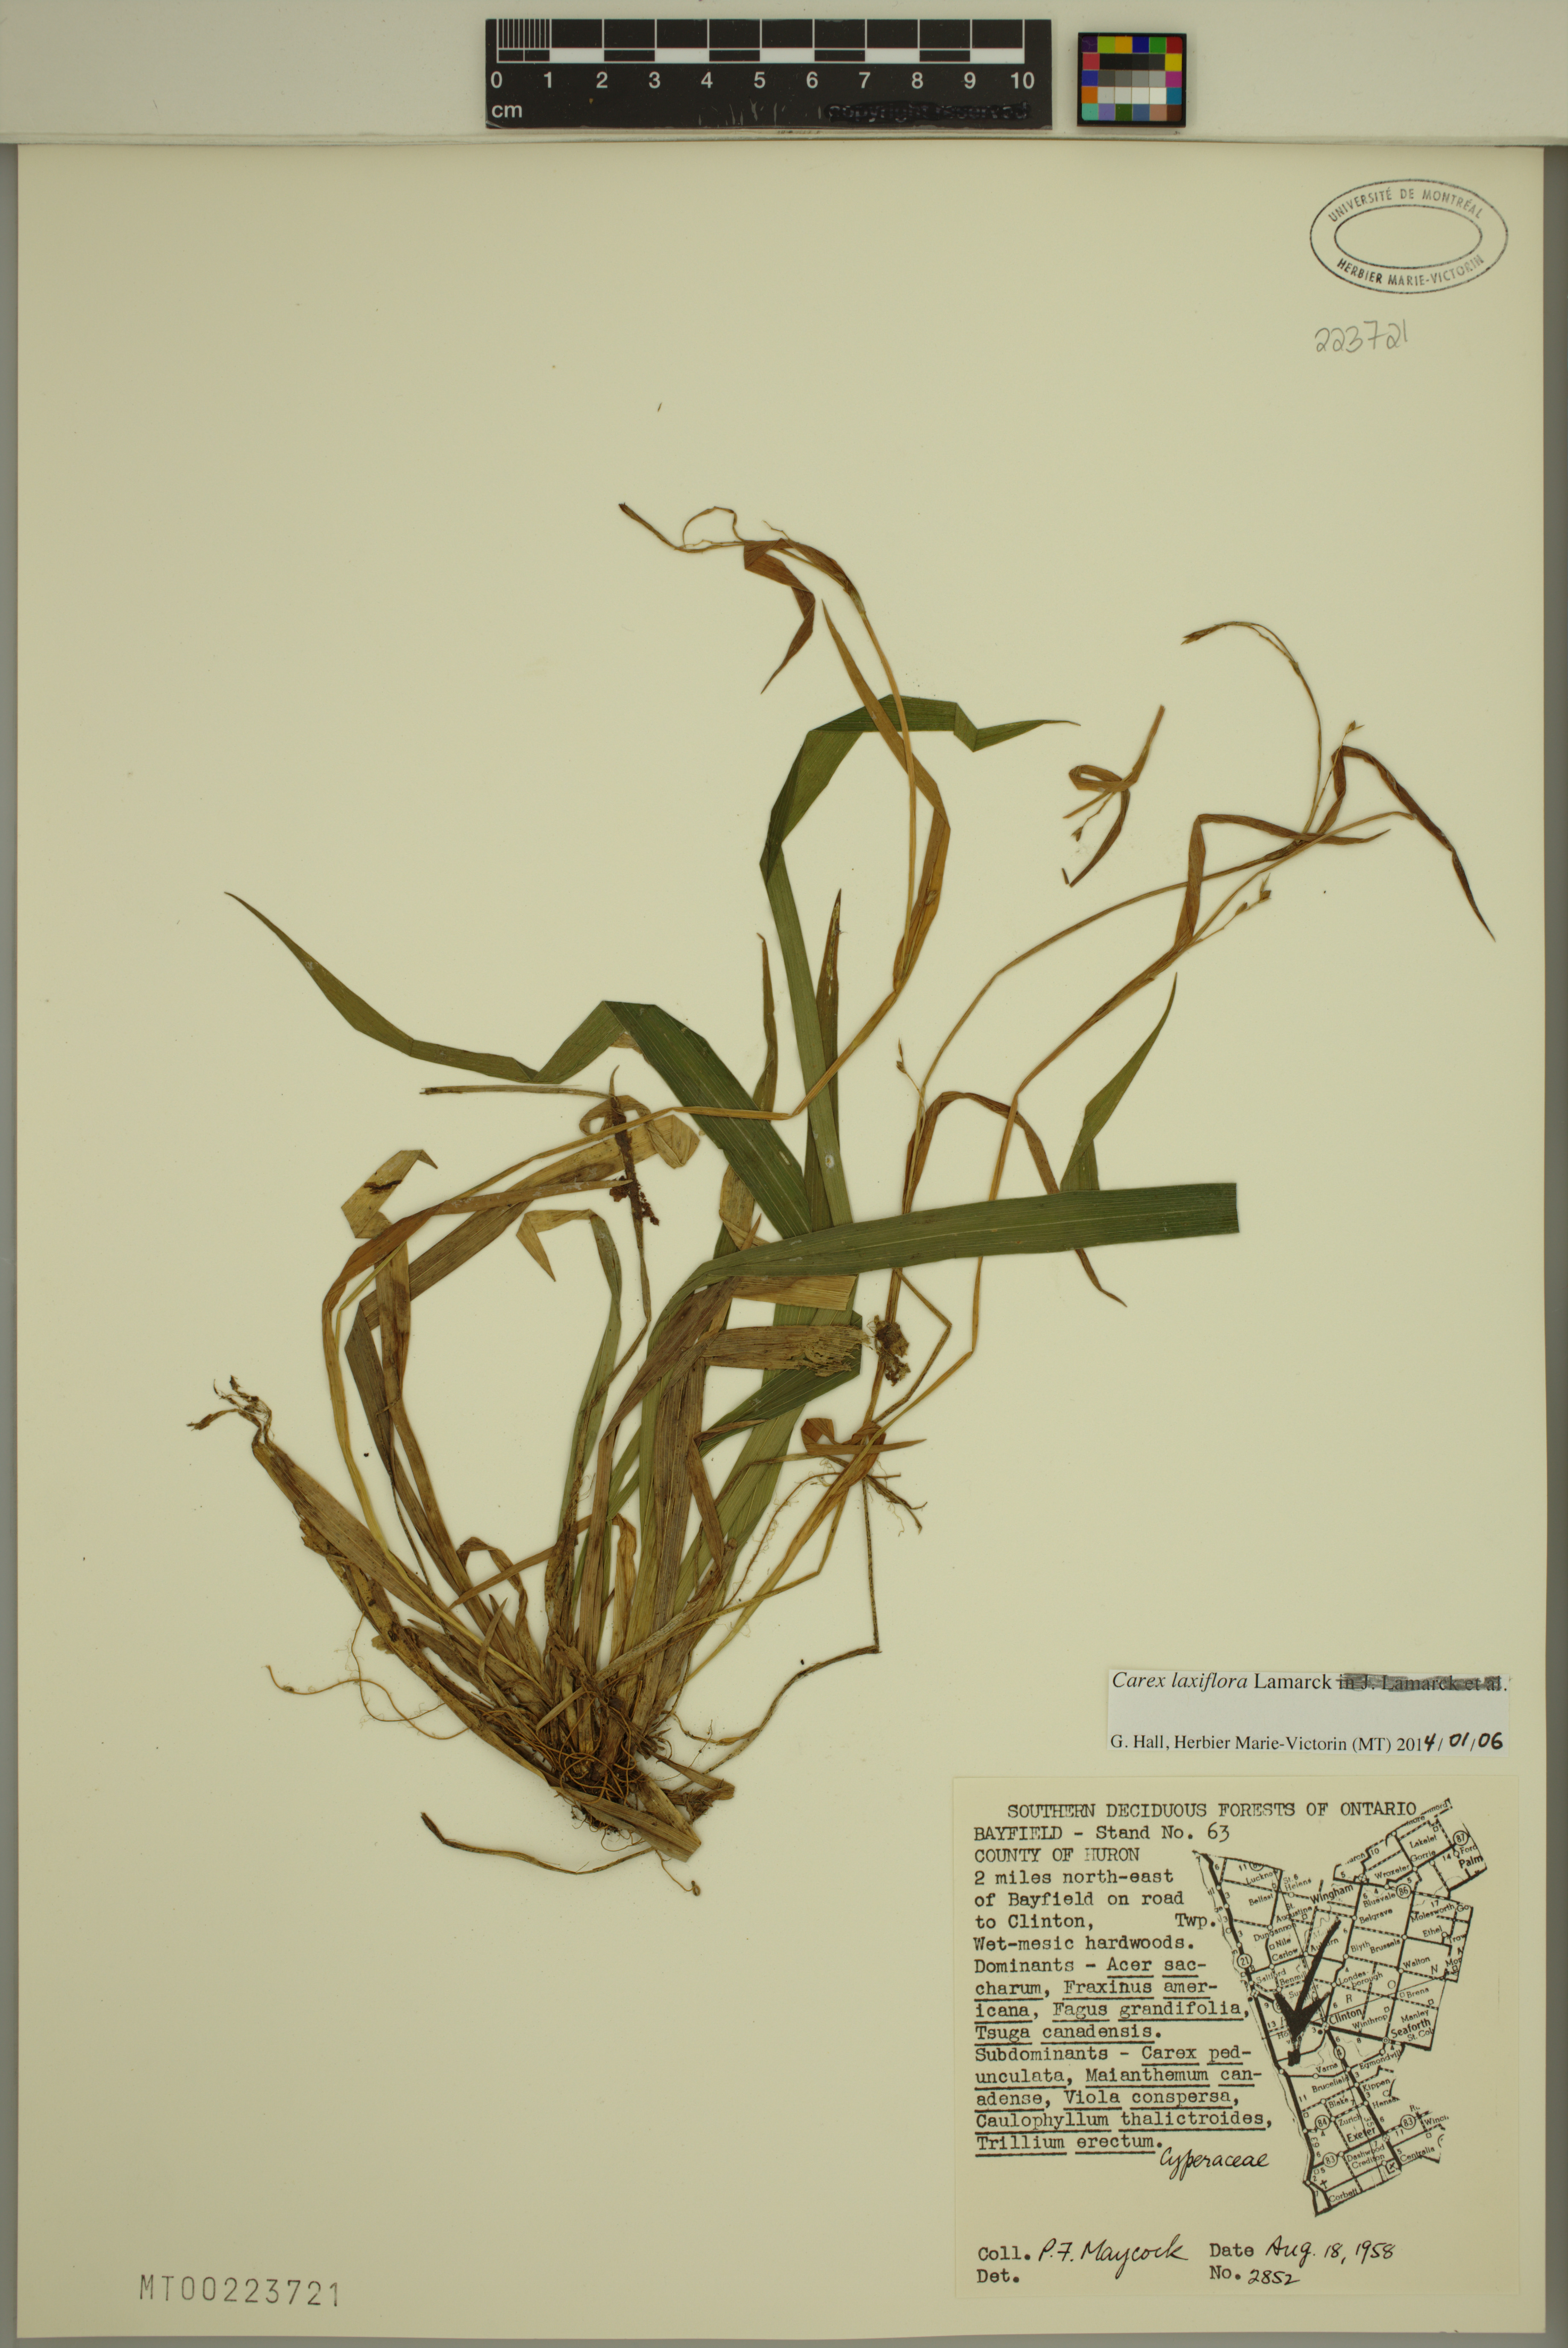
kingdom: Plantae
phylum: Tracheophyta
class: Liliopsida
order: Poales
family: Cyperaceae
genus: Carex
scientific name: Carex laxiflora
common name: Beech wood sedge
